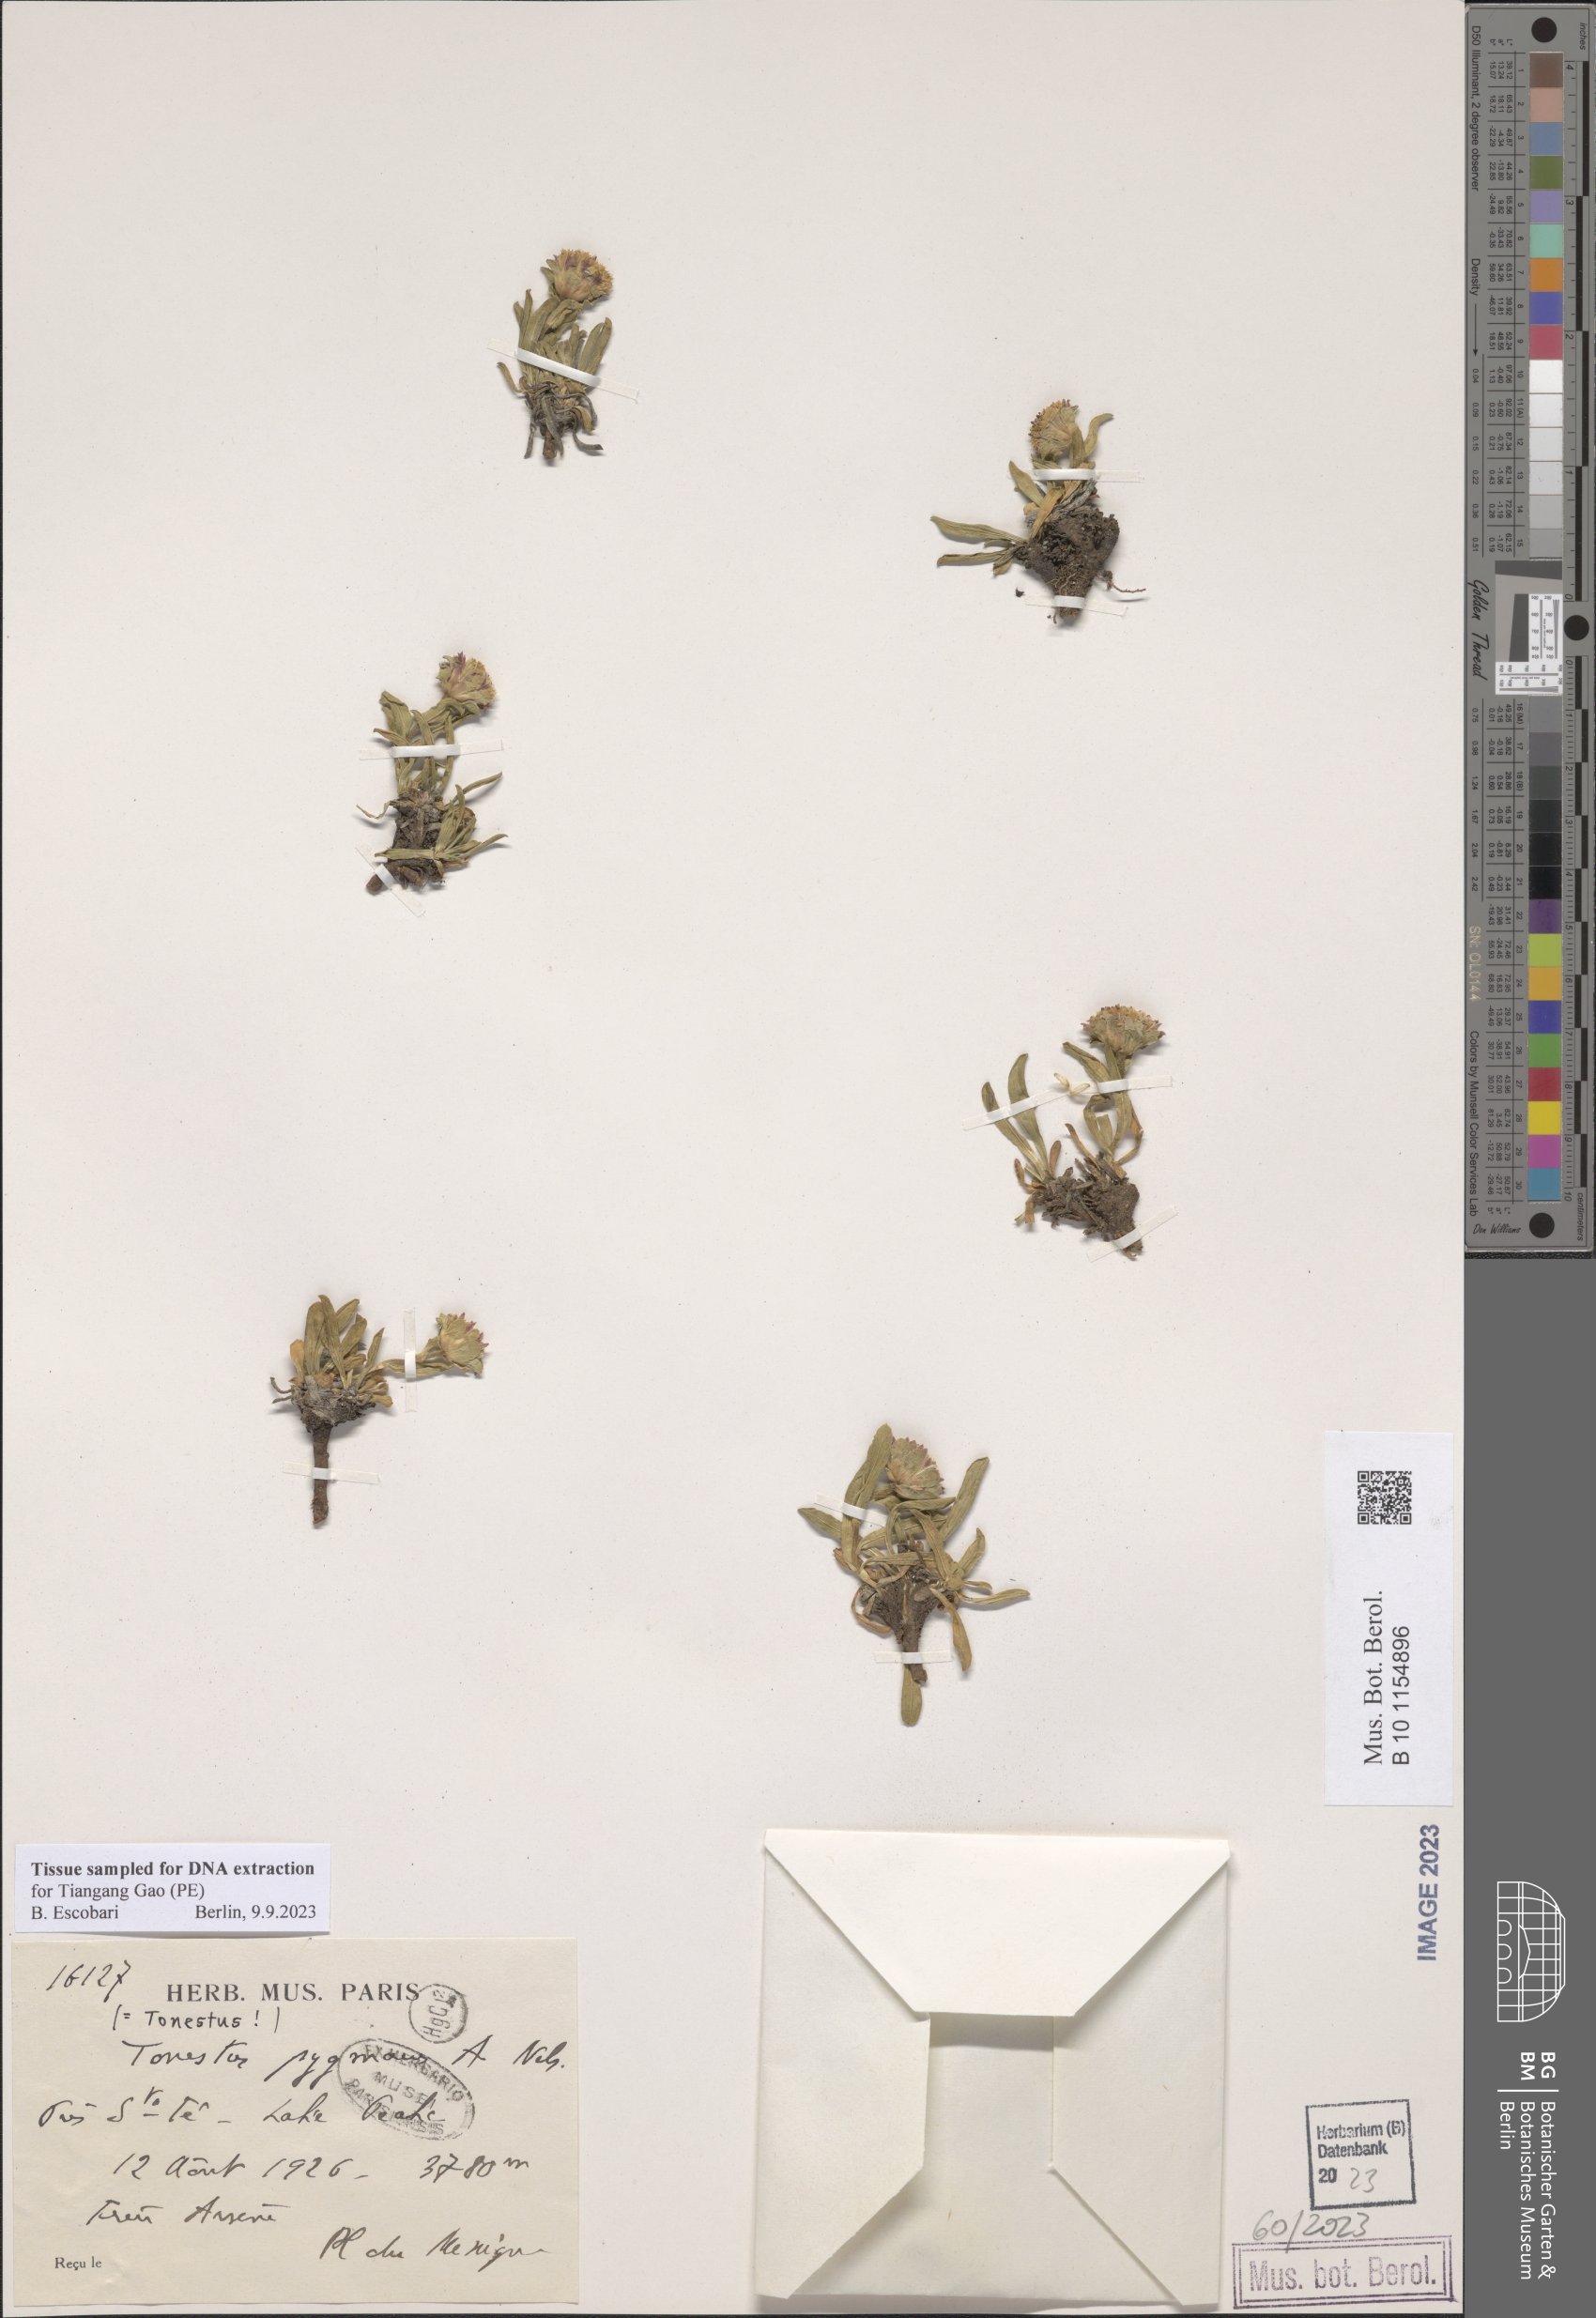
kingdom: Plantae
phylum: Tracheophyta
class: Magnoliopsida
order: Asterales
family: Asteraceae
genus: Tonestus
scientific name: Tonestus pygmaeus
